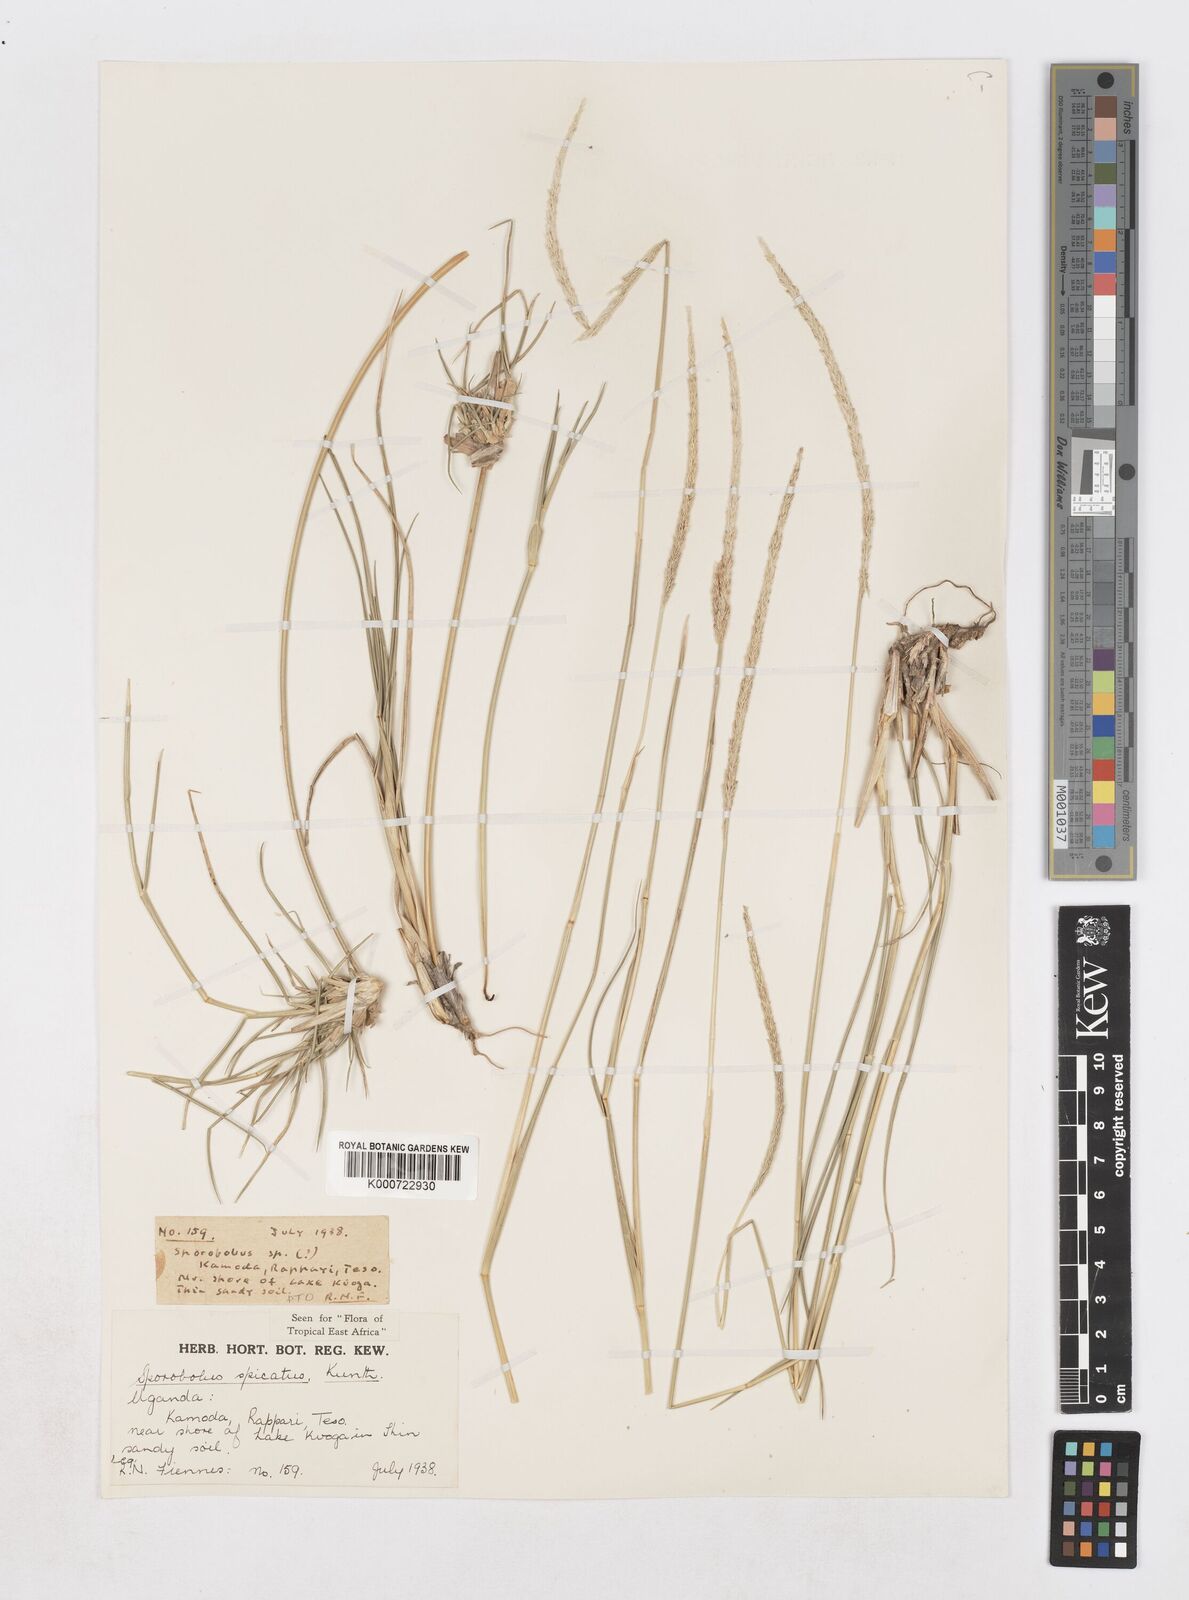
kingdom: Plantae
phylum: Tracheophyta
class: Liliopsida
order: Poales
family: Poaceae
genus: Sporobolus
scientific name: Sporobolus spicatus
